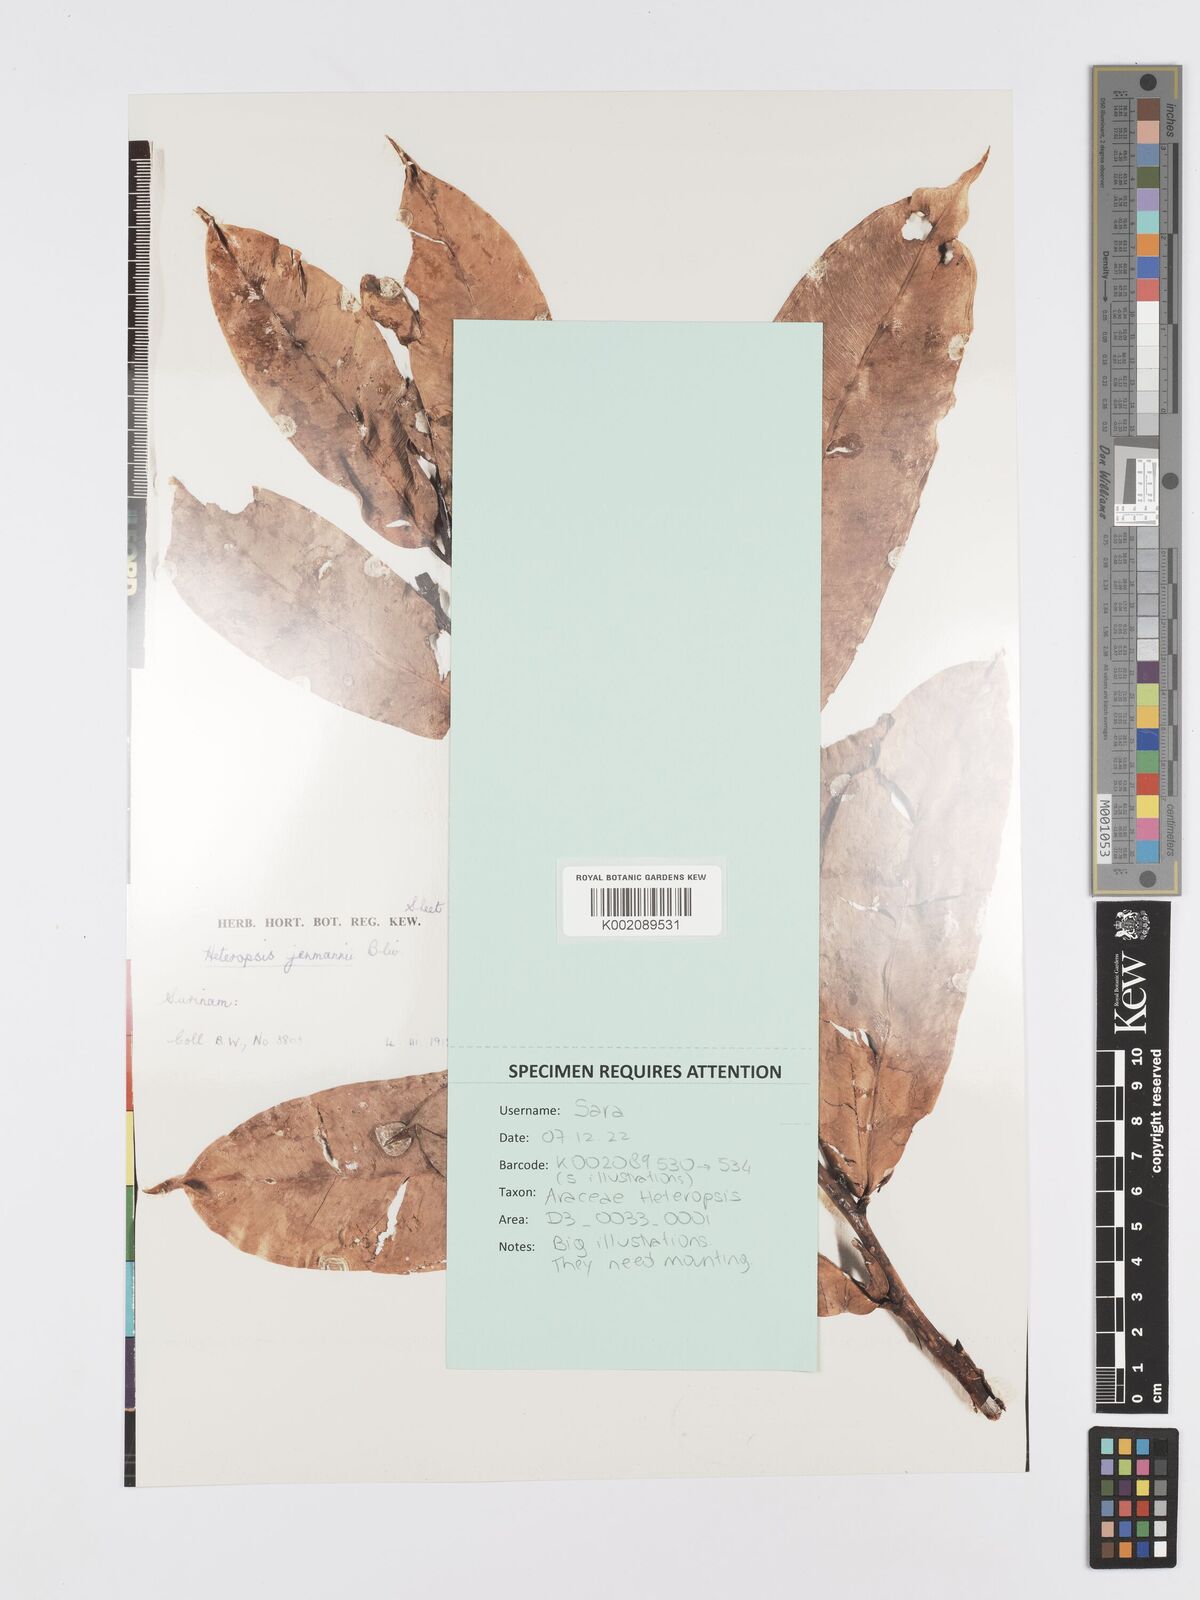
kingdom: Plantae
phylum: Tracheophyta
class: Liliopsida
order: Alismatales
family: Araceae
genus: Heteropsis
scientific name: Heteropsis flexuosa
